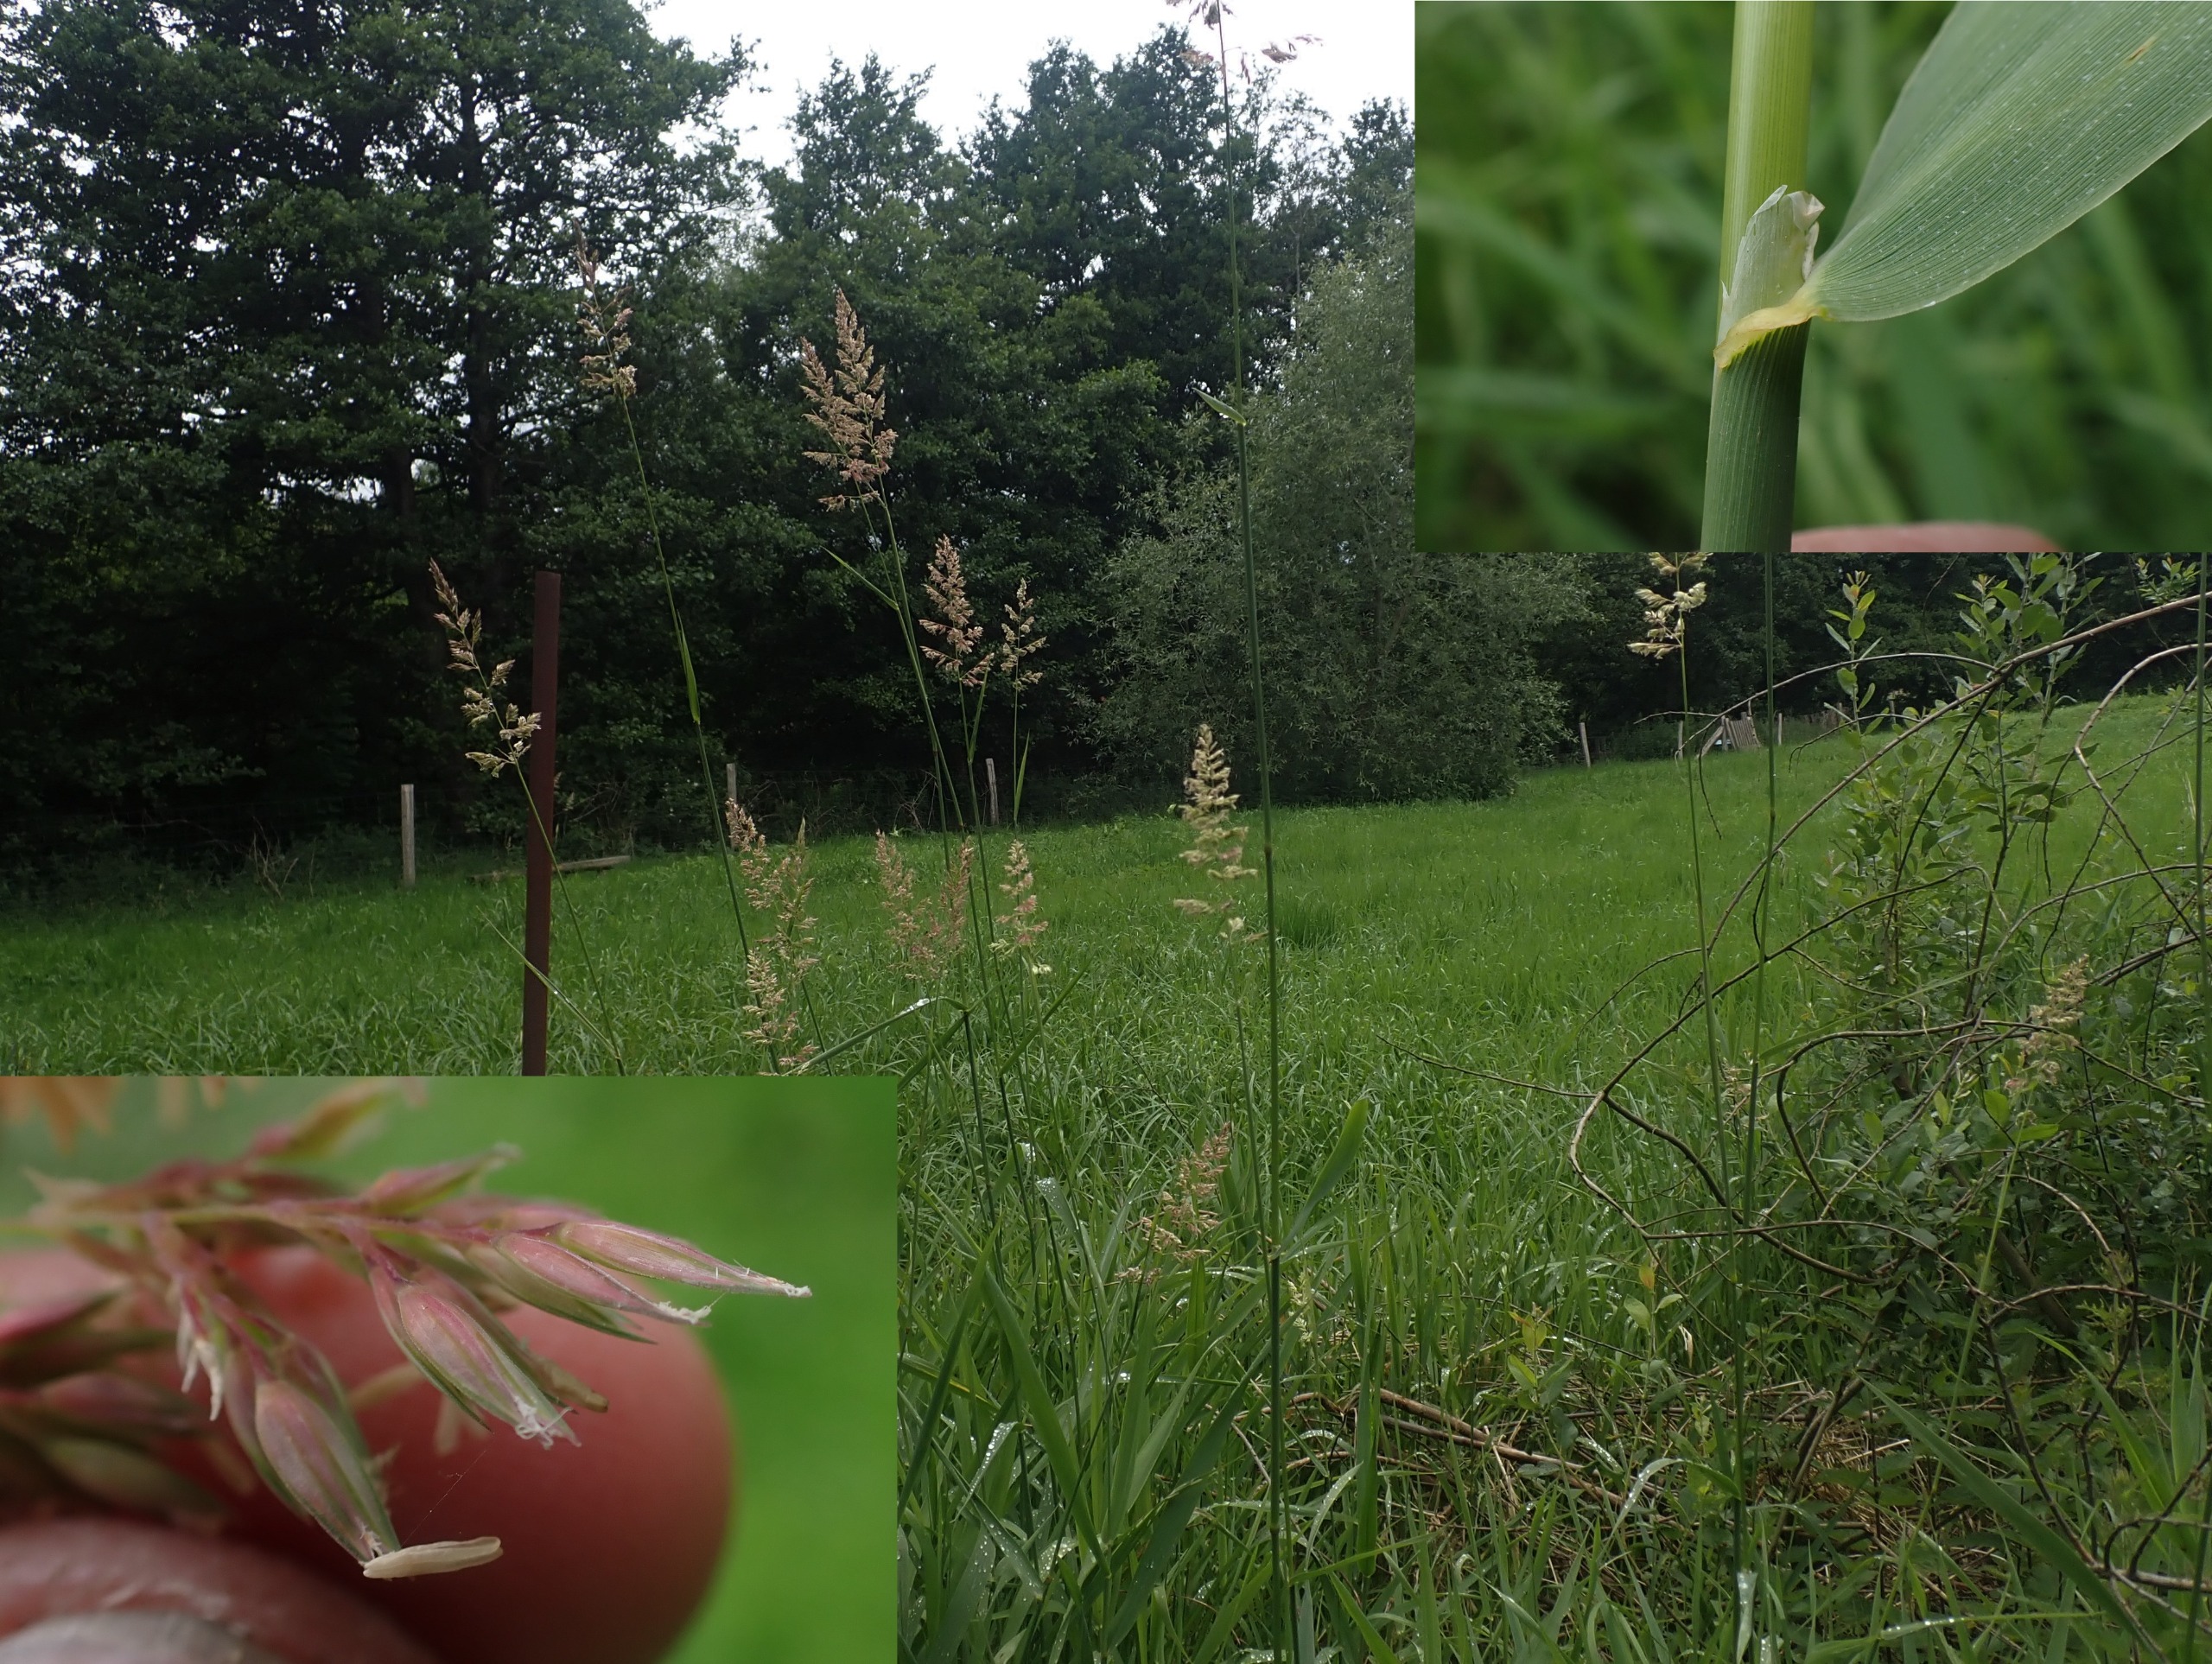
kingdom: Plantae
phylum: Tracheophyta
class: Liliopsida
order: Poales
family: Poaceae
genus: Phalaris
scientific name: Phalaris arundinacea
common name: Rørgræs
